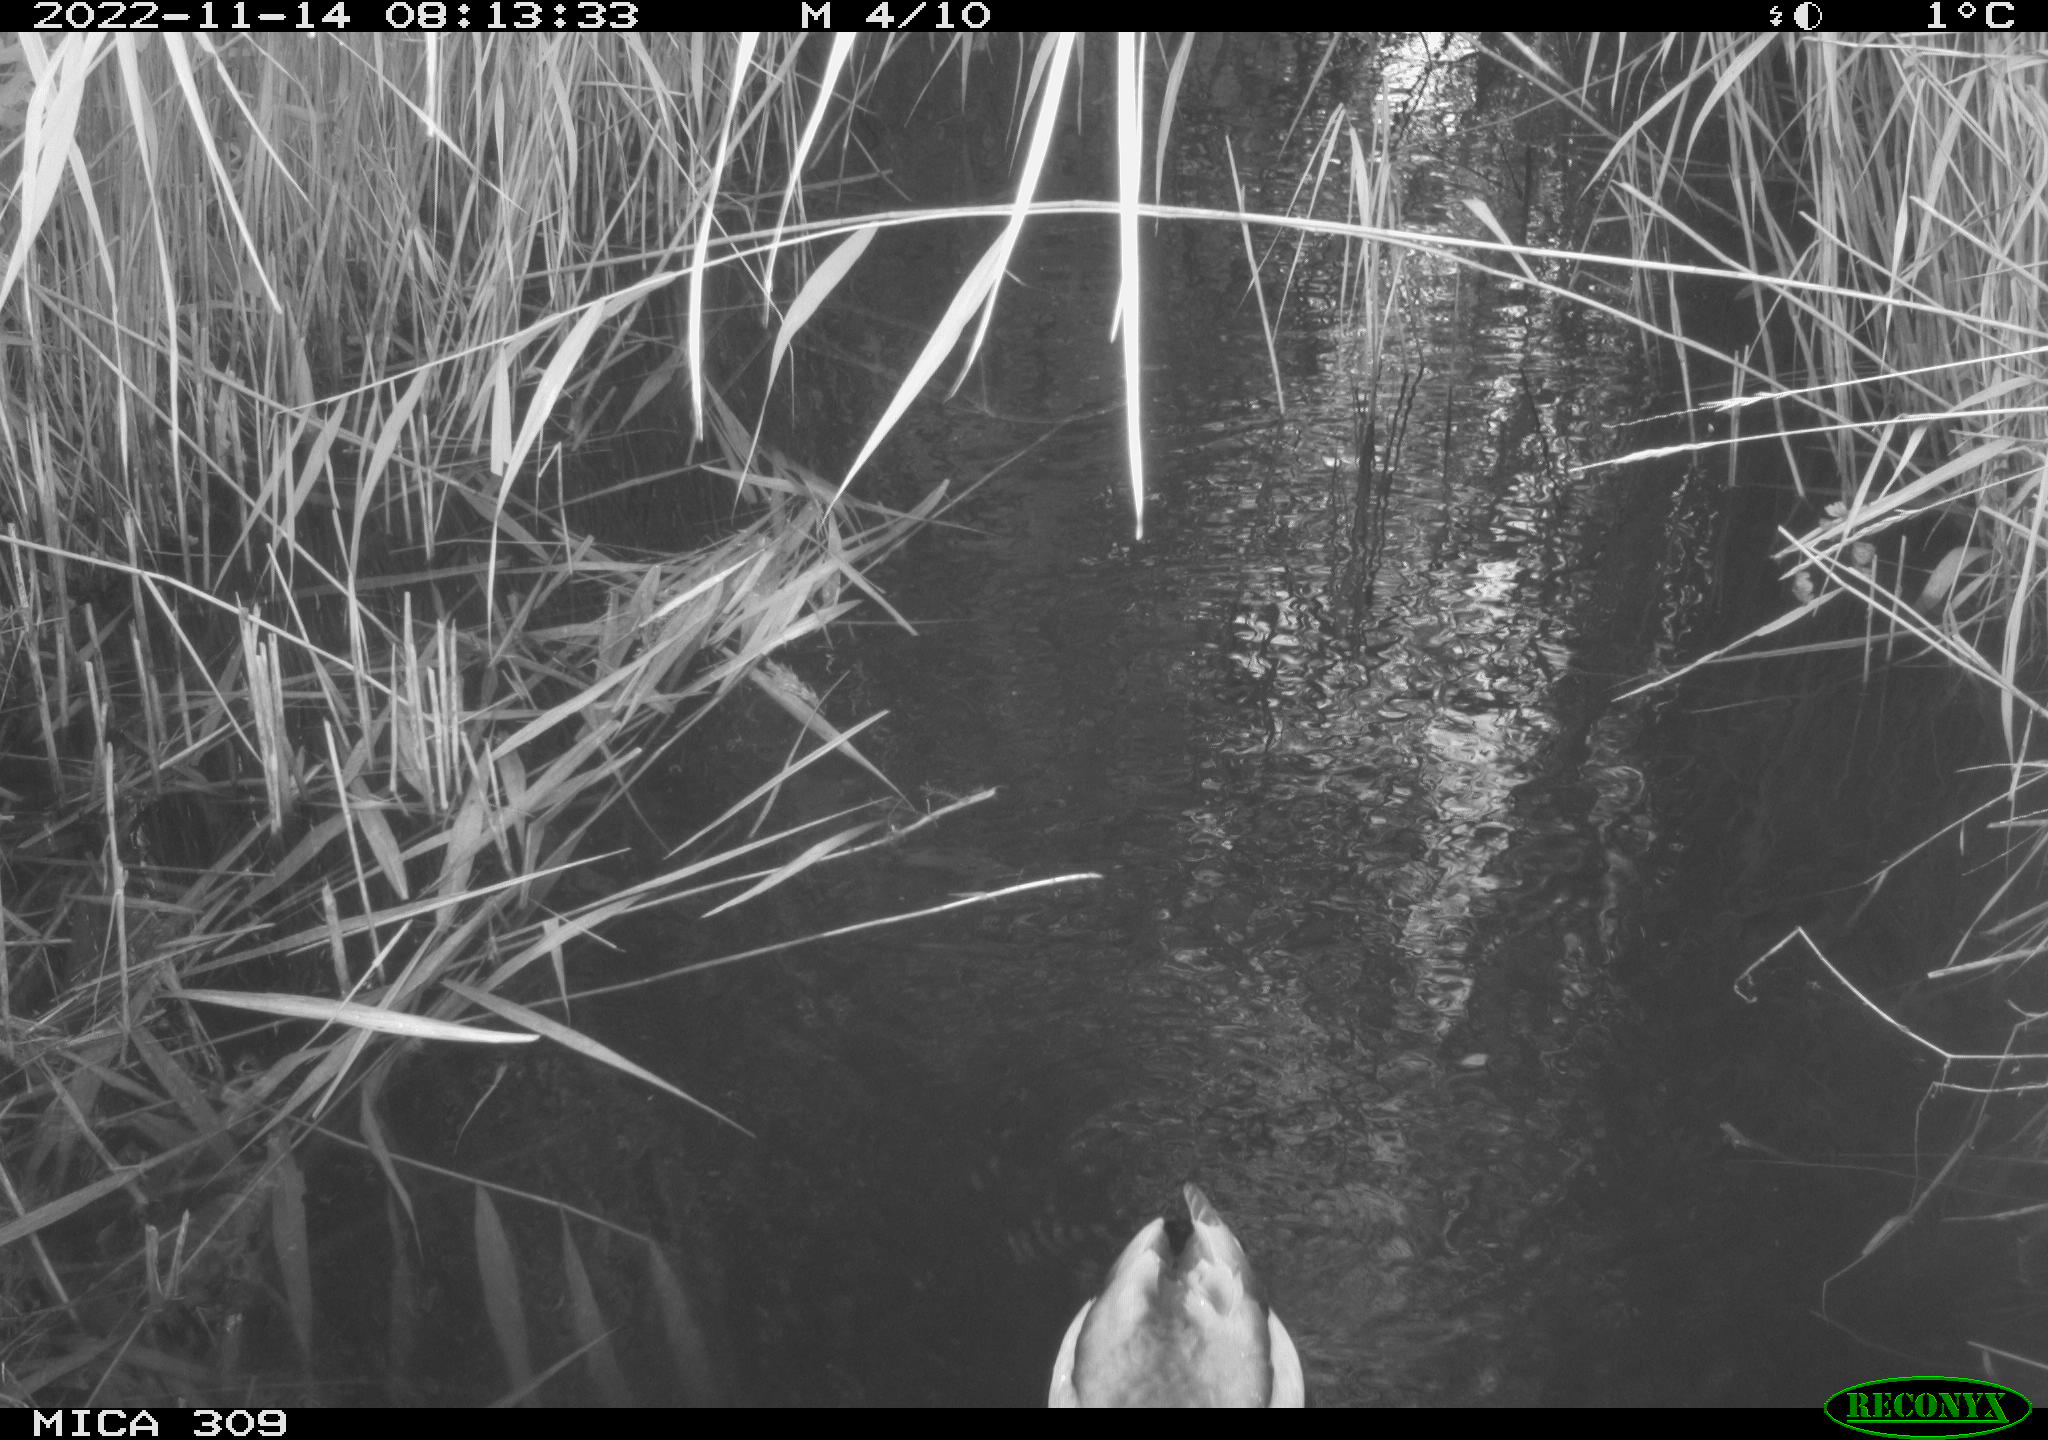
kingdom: Animalia
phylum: Chordata
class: Aves
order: Anseriformes
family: Anatidae
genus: Anas
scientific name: Anas
